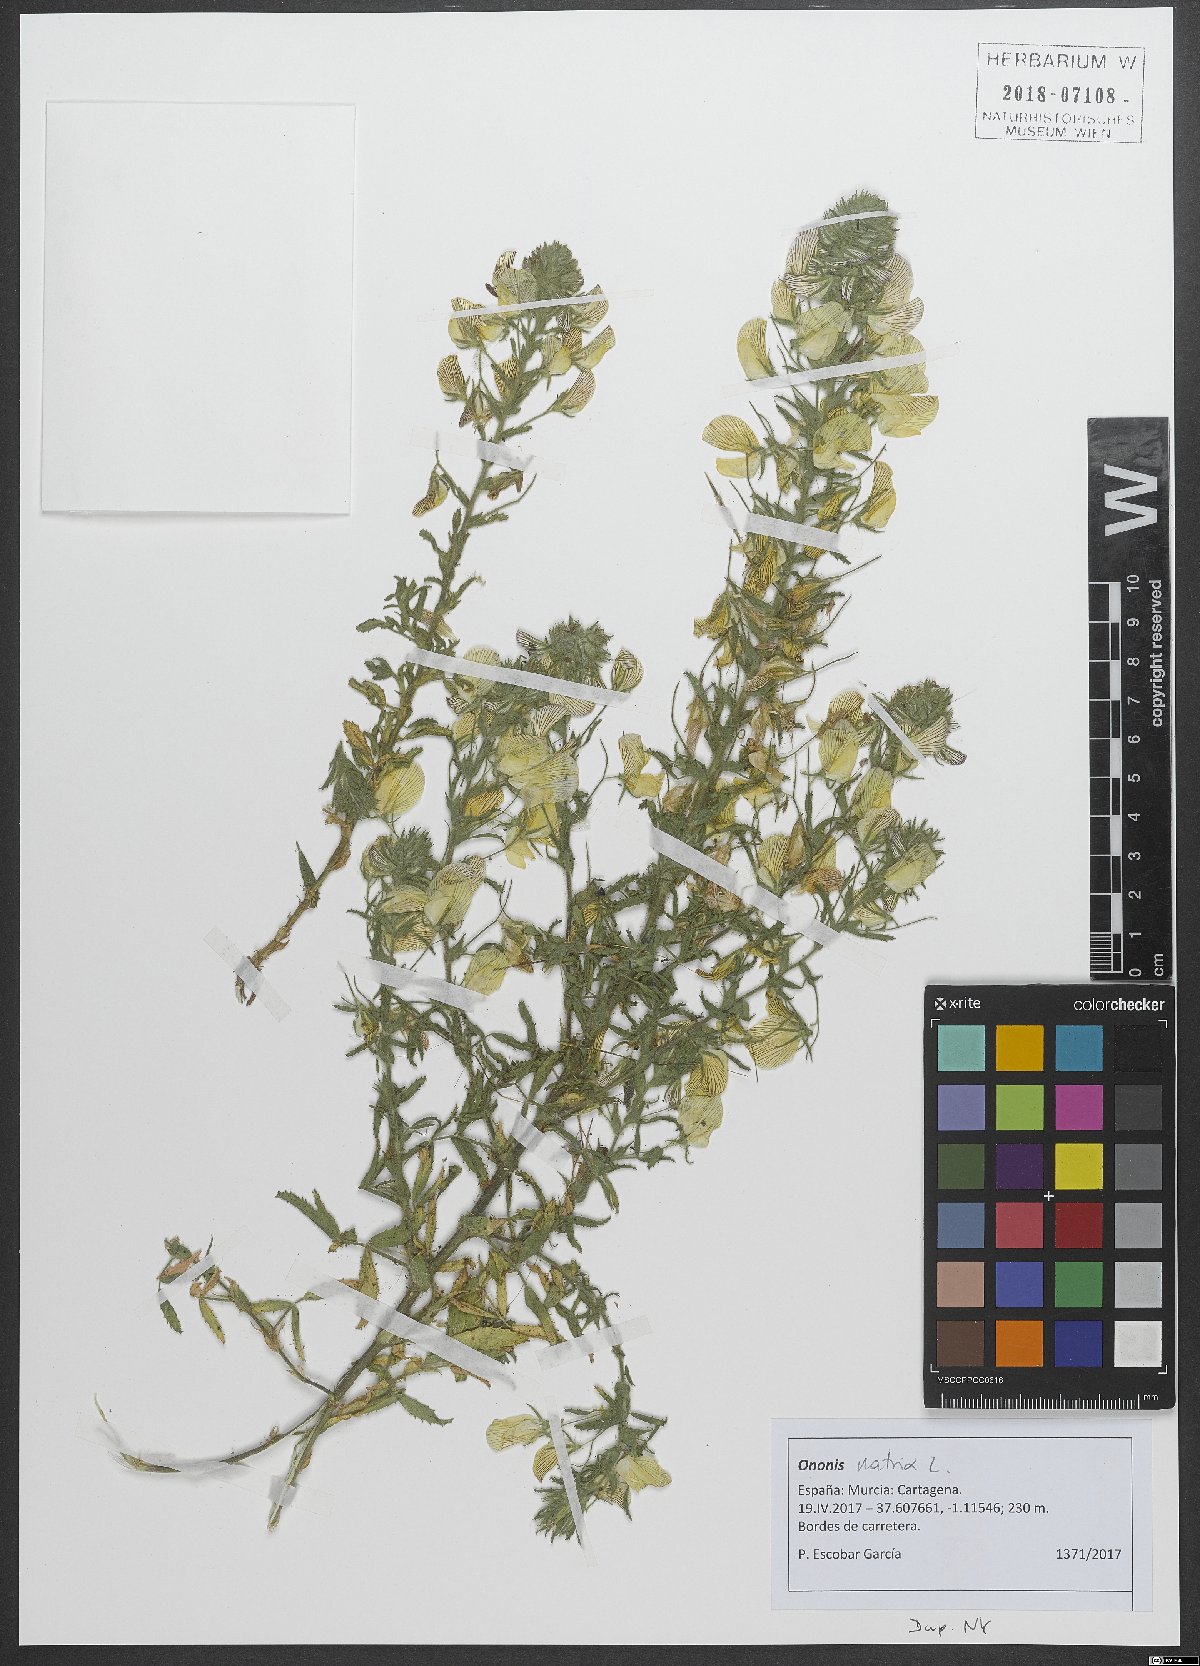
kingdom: Plantae
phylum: Tracheophyta
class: Magnoliopsida
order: Fabales
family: Fabaceae
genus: Ononis
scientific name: Ononis natrix
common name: Yellow restharrow
